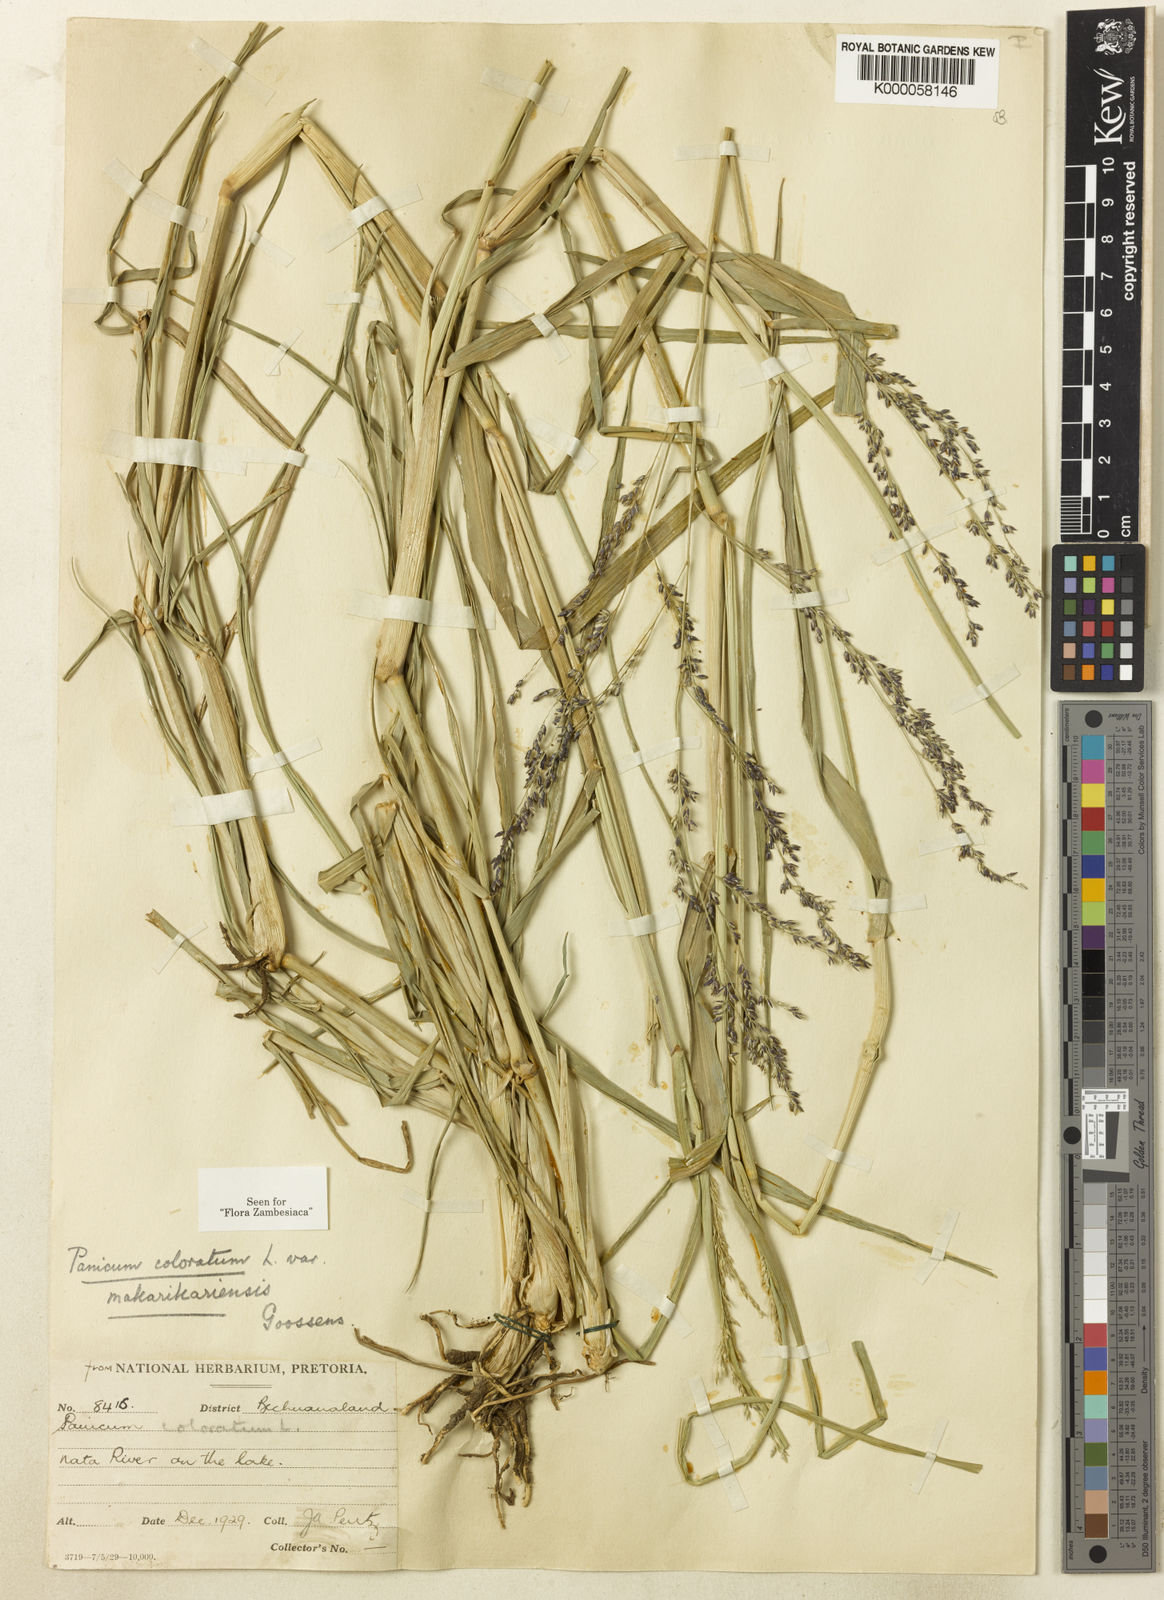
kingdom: Plantae
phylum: Tracheophyta
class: Liliopsida
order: Poales
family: Poaceae
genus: Panicum
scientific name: Panicum coloratum
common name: Kleingrass
